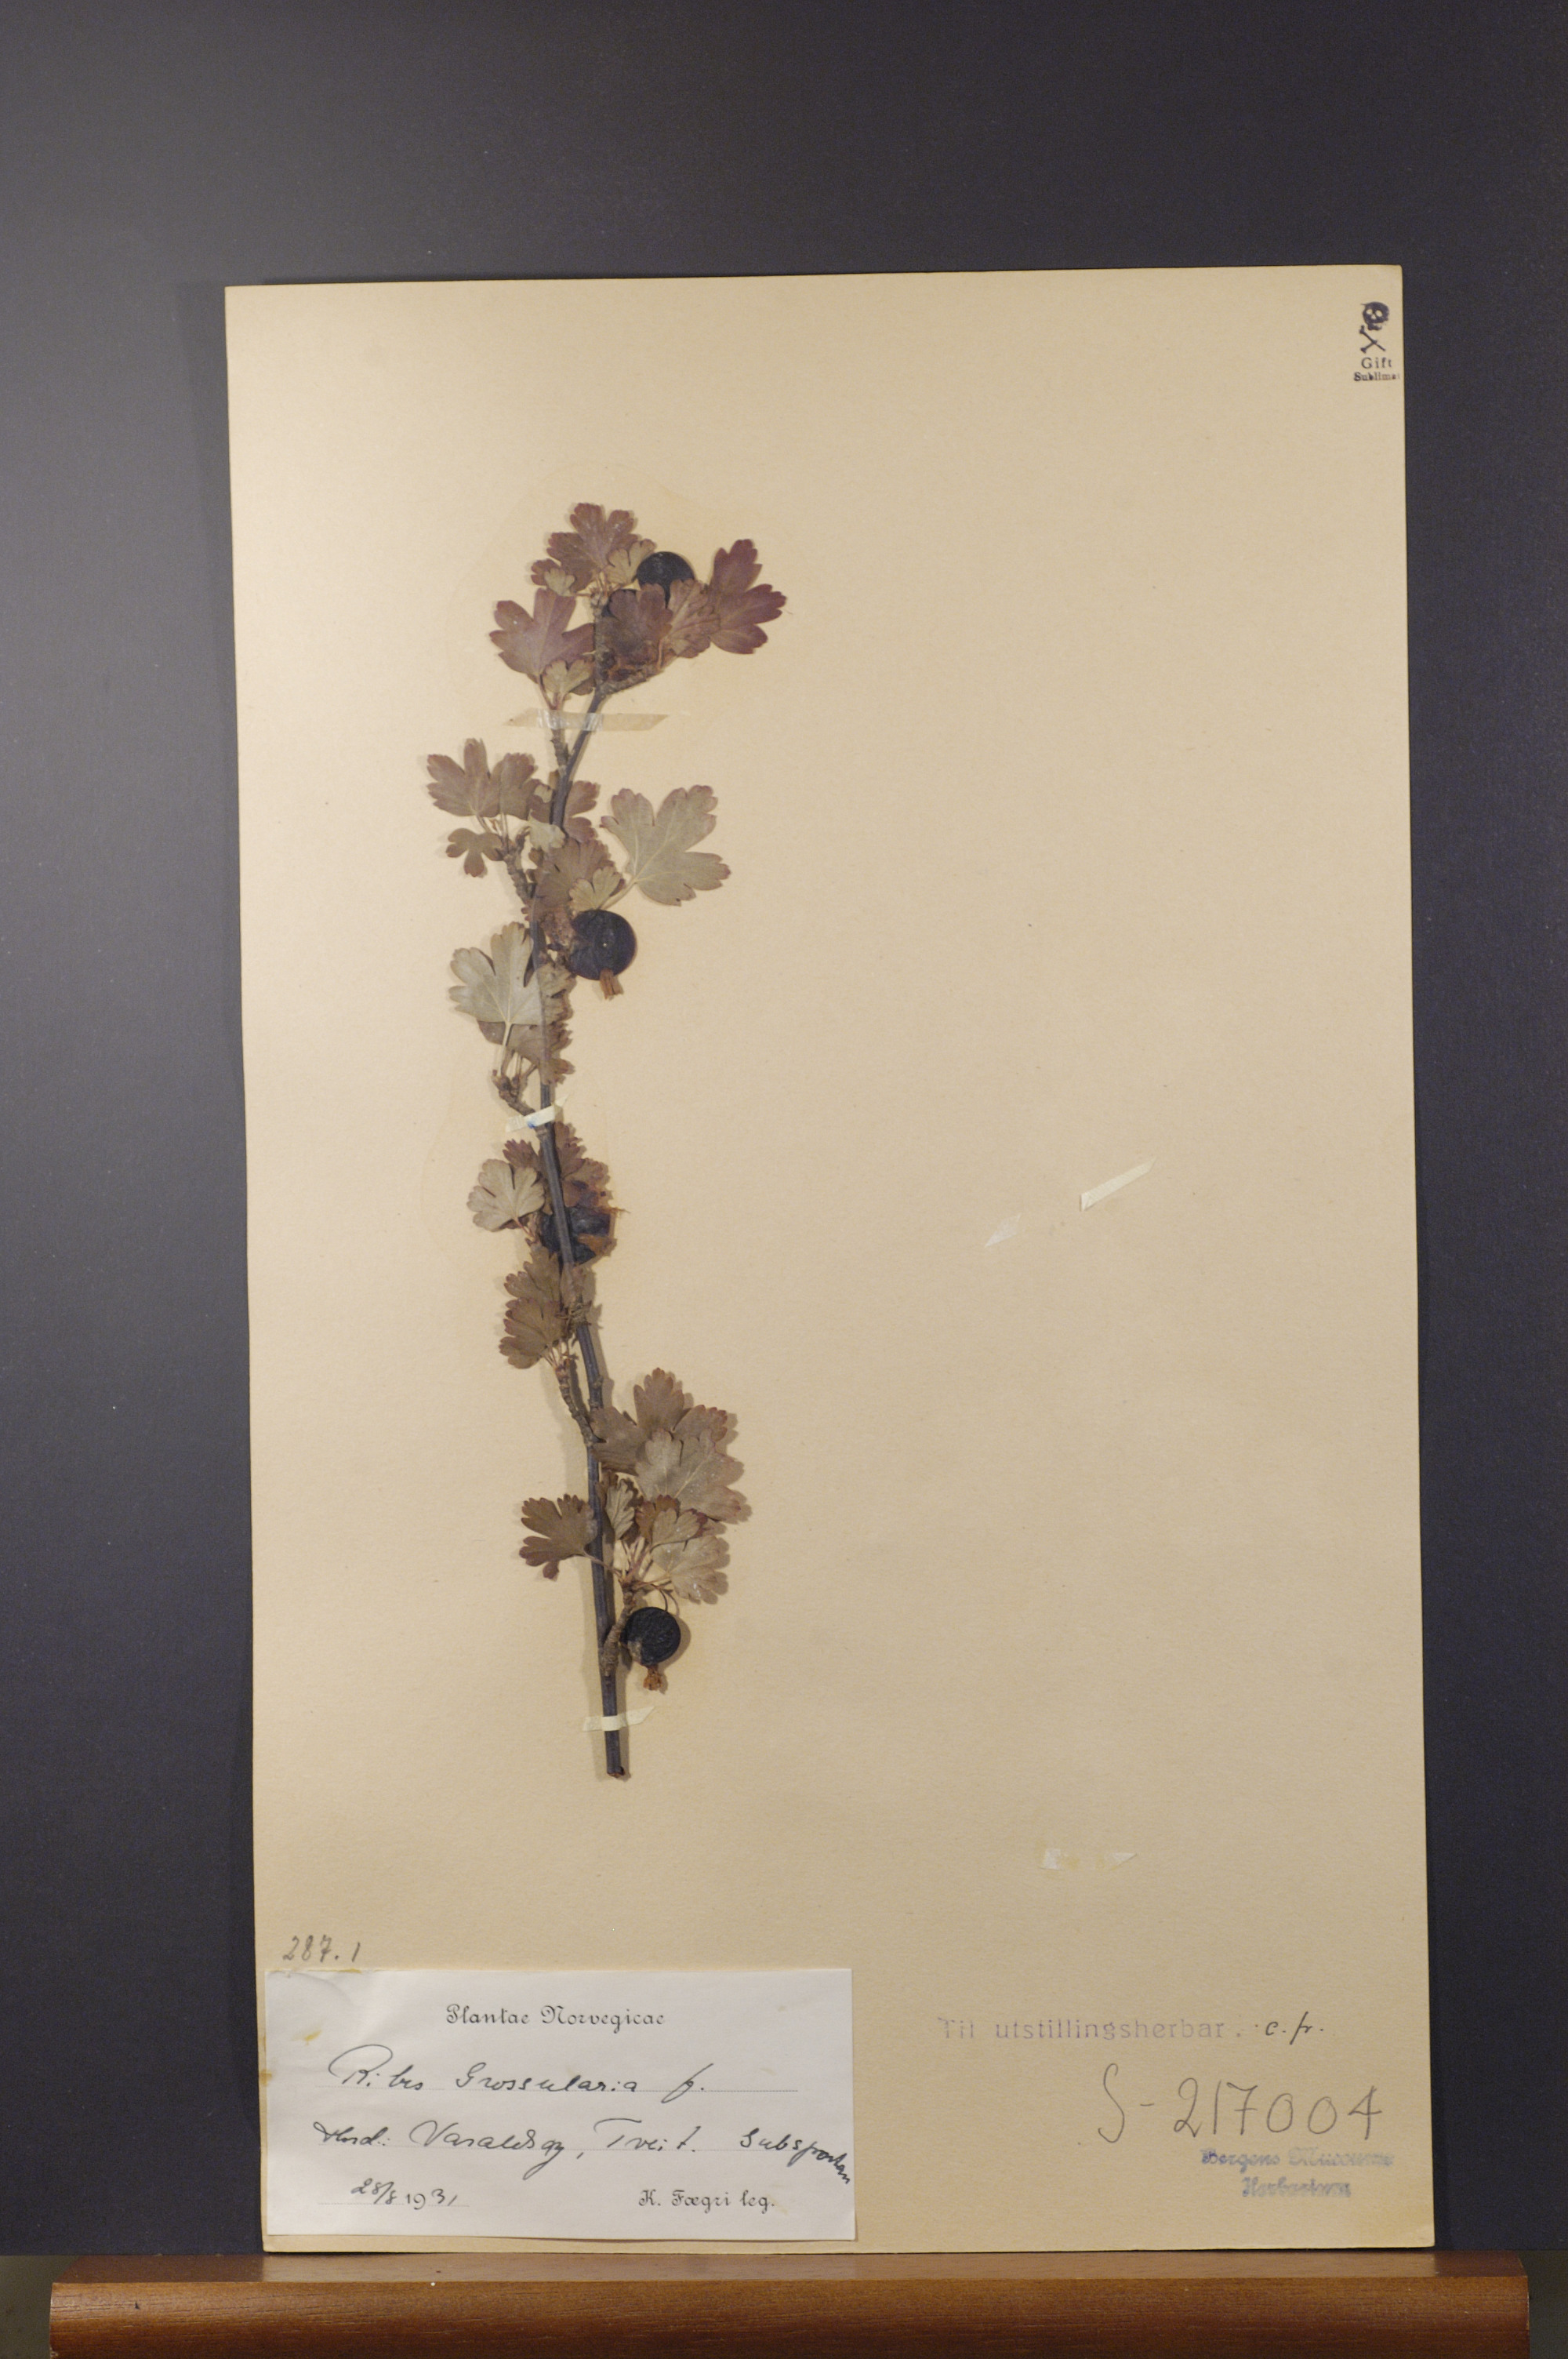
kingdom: Plantae
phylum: Tracheophyta
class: Magnoliopsida
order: Saxifragales
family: Grossulariaceae
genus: Ribes
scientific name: Ribes uva-crispa
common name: Gooseberry
